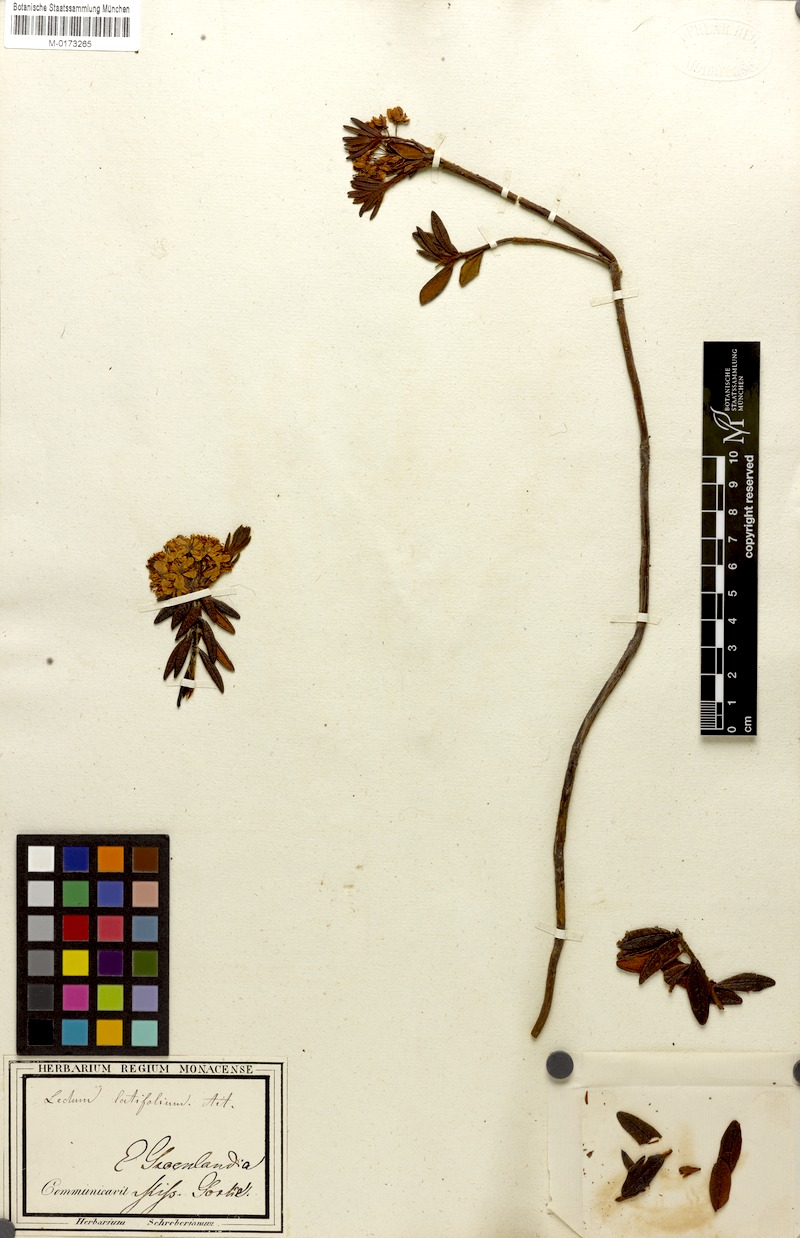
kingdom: Plantae
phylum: Tracheophyta
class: Magnoliopsida
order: Ericales
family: Ericaceae
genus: Rhododendron
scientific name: Rhododendron groenlandicum
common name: Bog labrador tea
